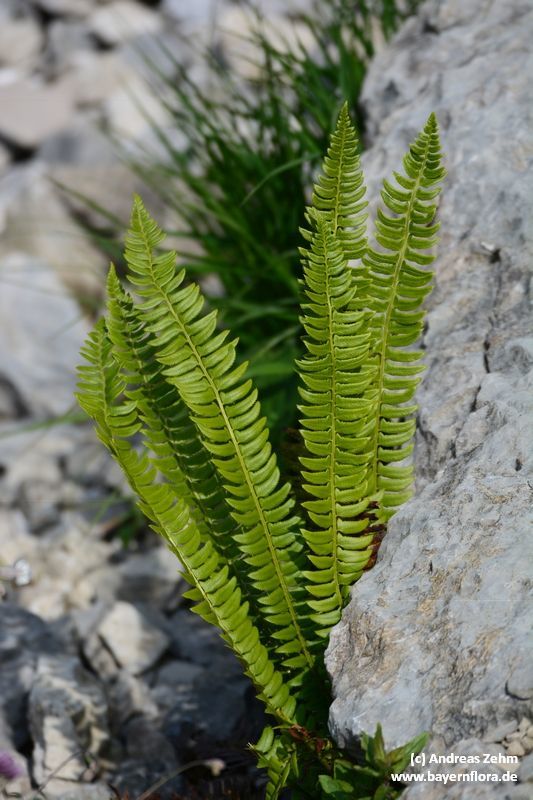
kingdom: Plantae
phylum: Tracheophyta
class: Polypodiopsida
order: Polypodiales
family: Dryopteridaceae
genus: Polystichum
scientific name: Polystichum lonchitis
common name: Holly fern
